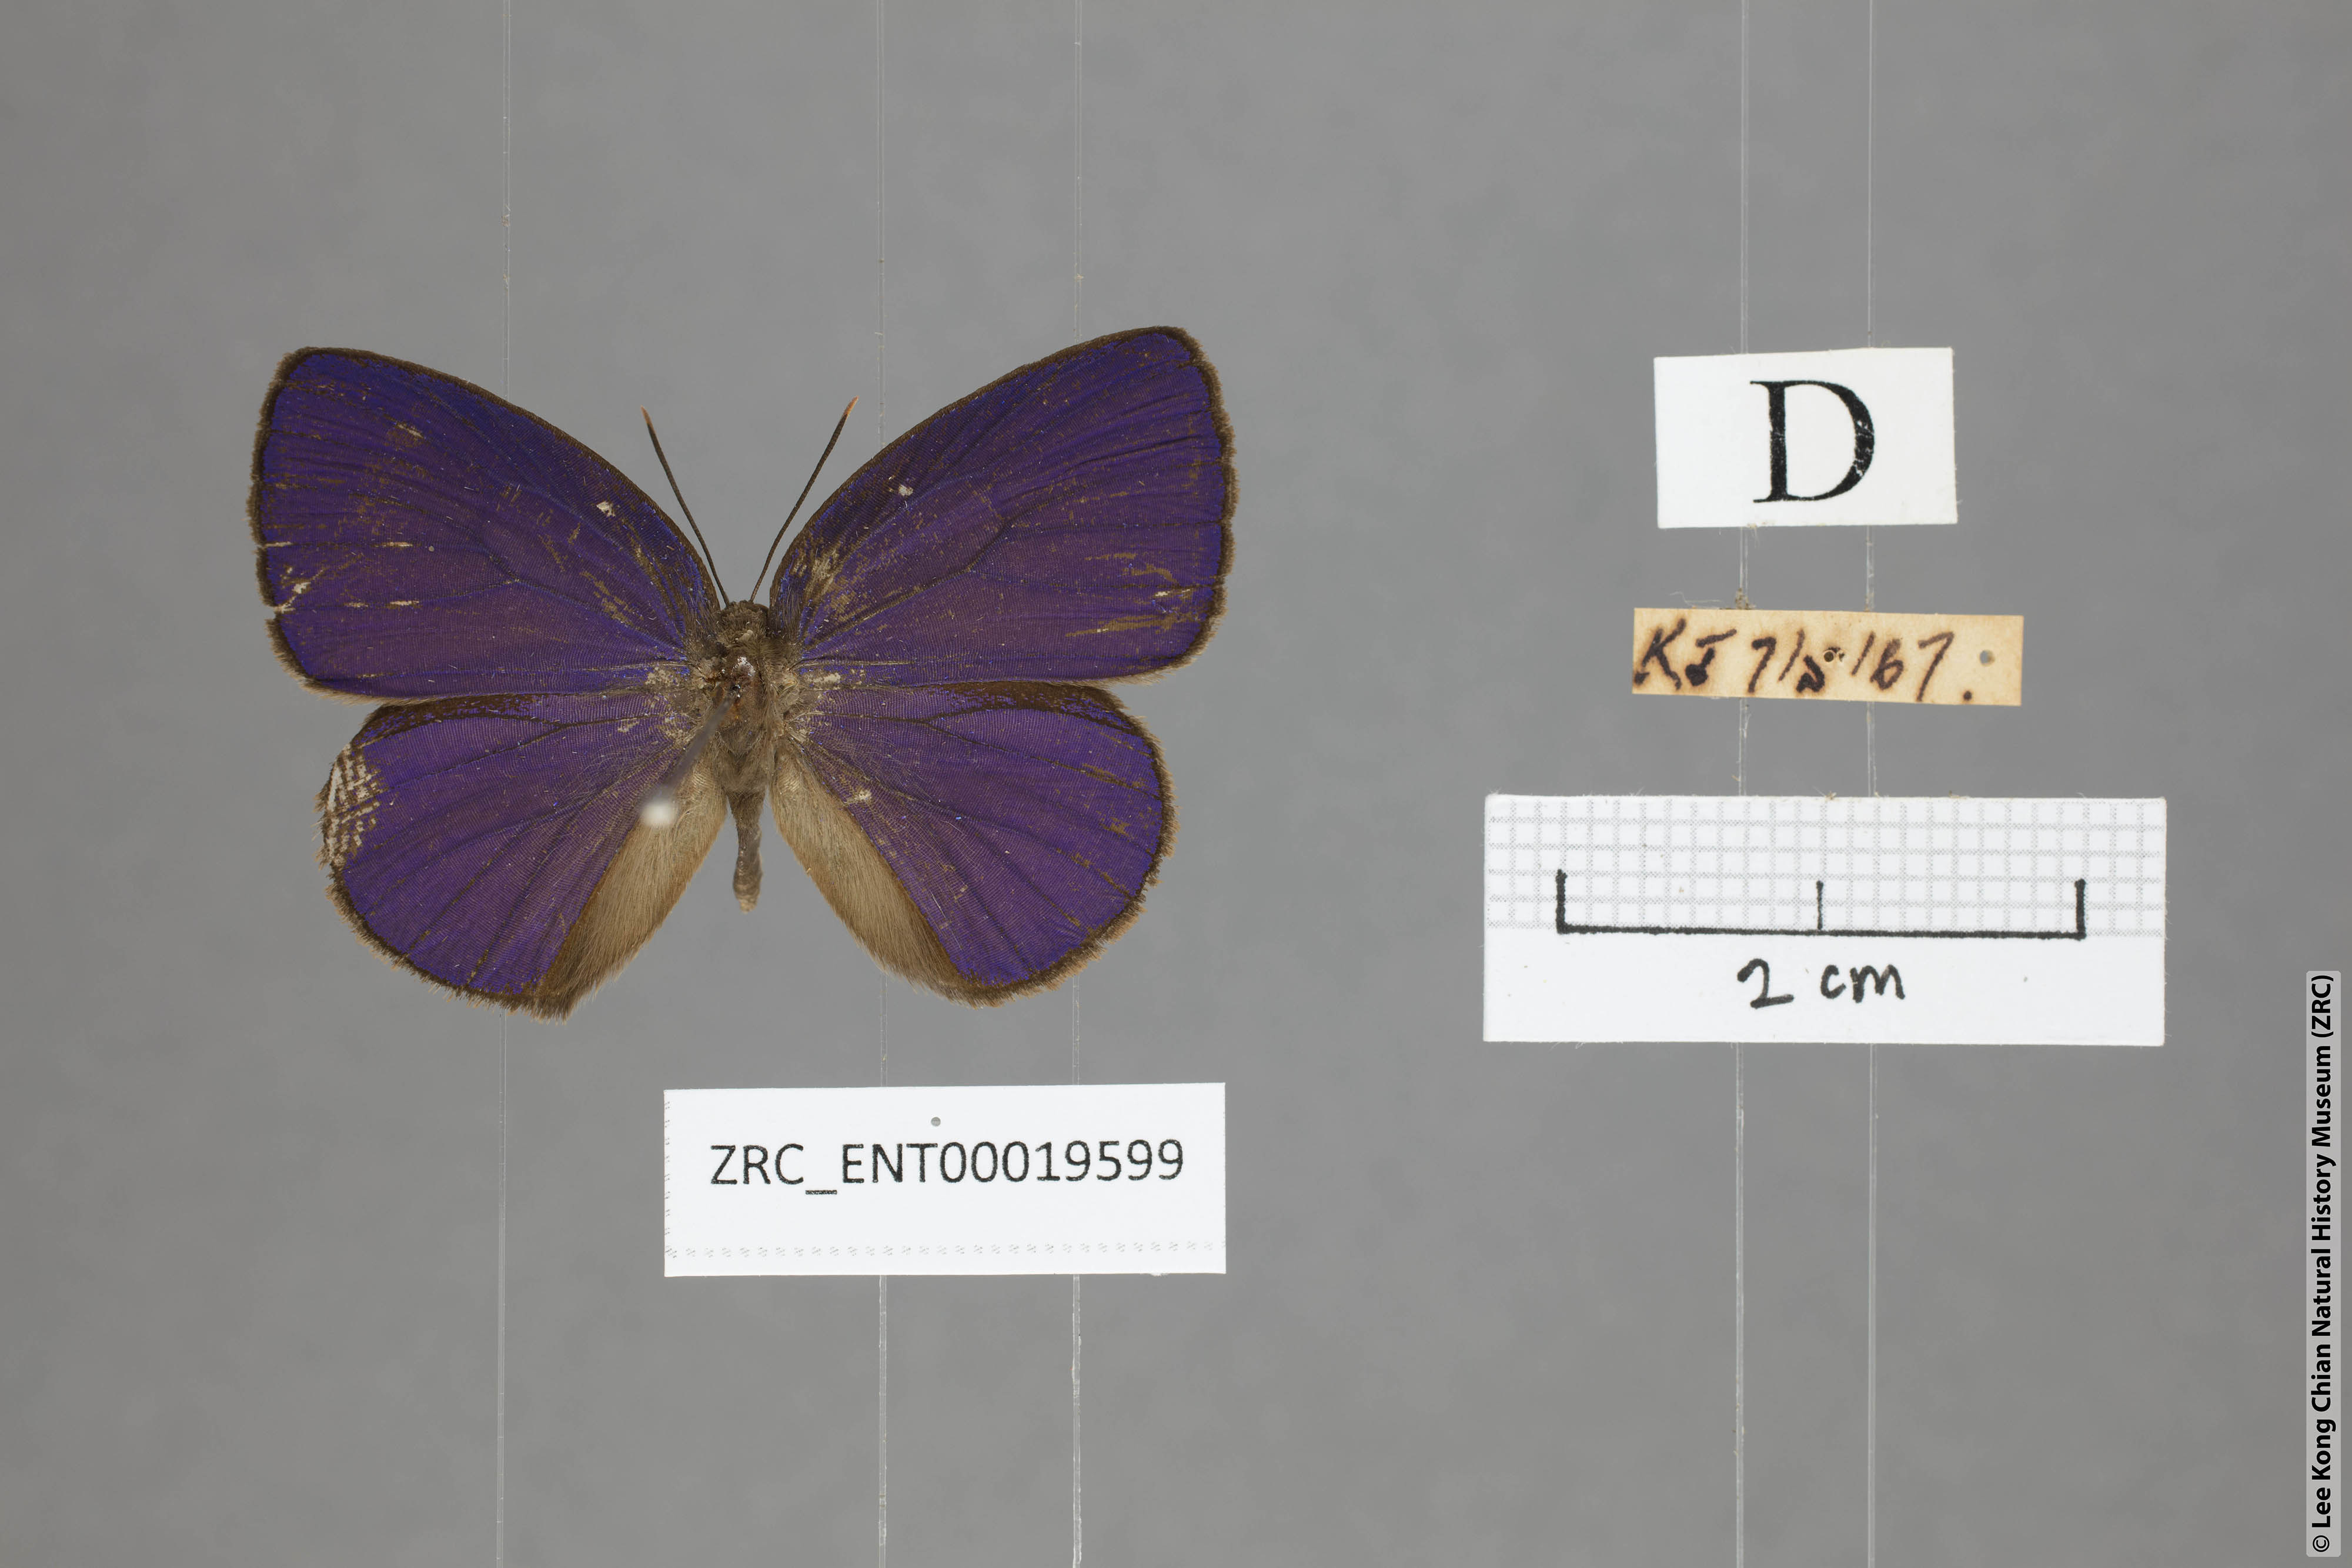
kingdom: Animalia
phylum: Arthropoda
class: Insecta
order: Lepidoptera
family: Lycaenidae
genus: Arhopala
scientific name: Arhopala kurzi
